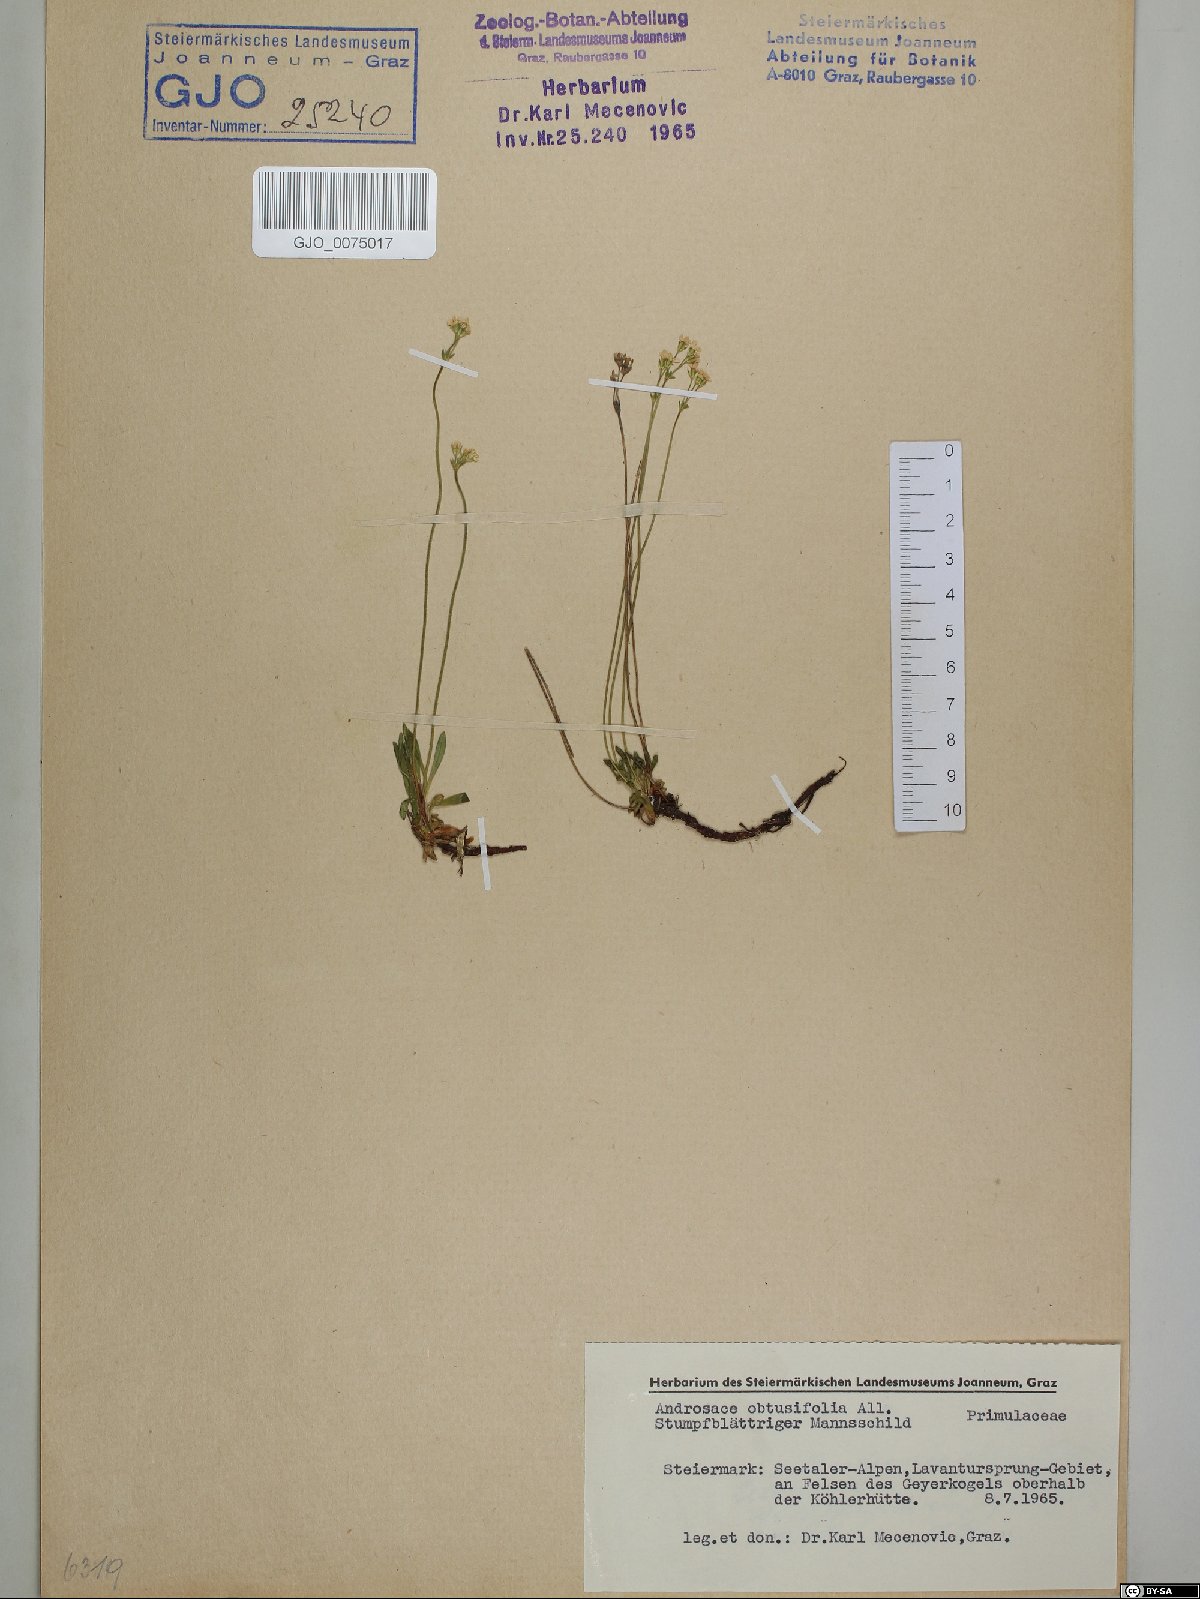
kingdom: Plantae
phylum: Tracheophyta
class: Magnoliopsida
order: Ericales
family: Primulaceae
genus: Androsace
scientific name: Androsace obtusifolia
